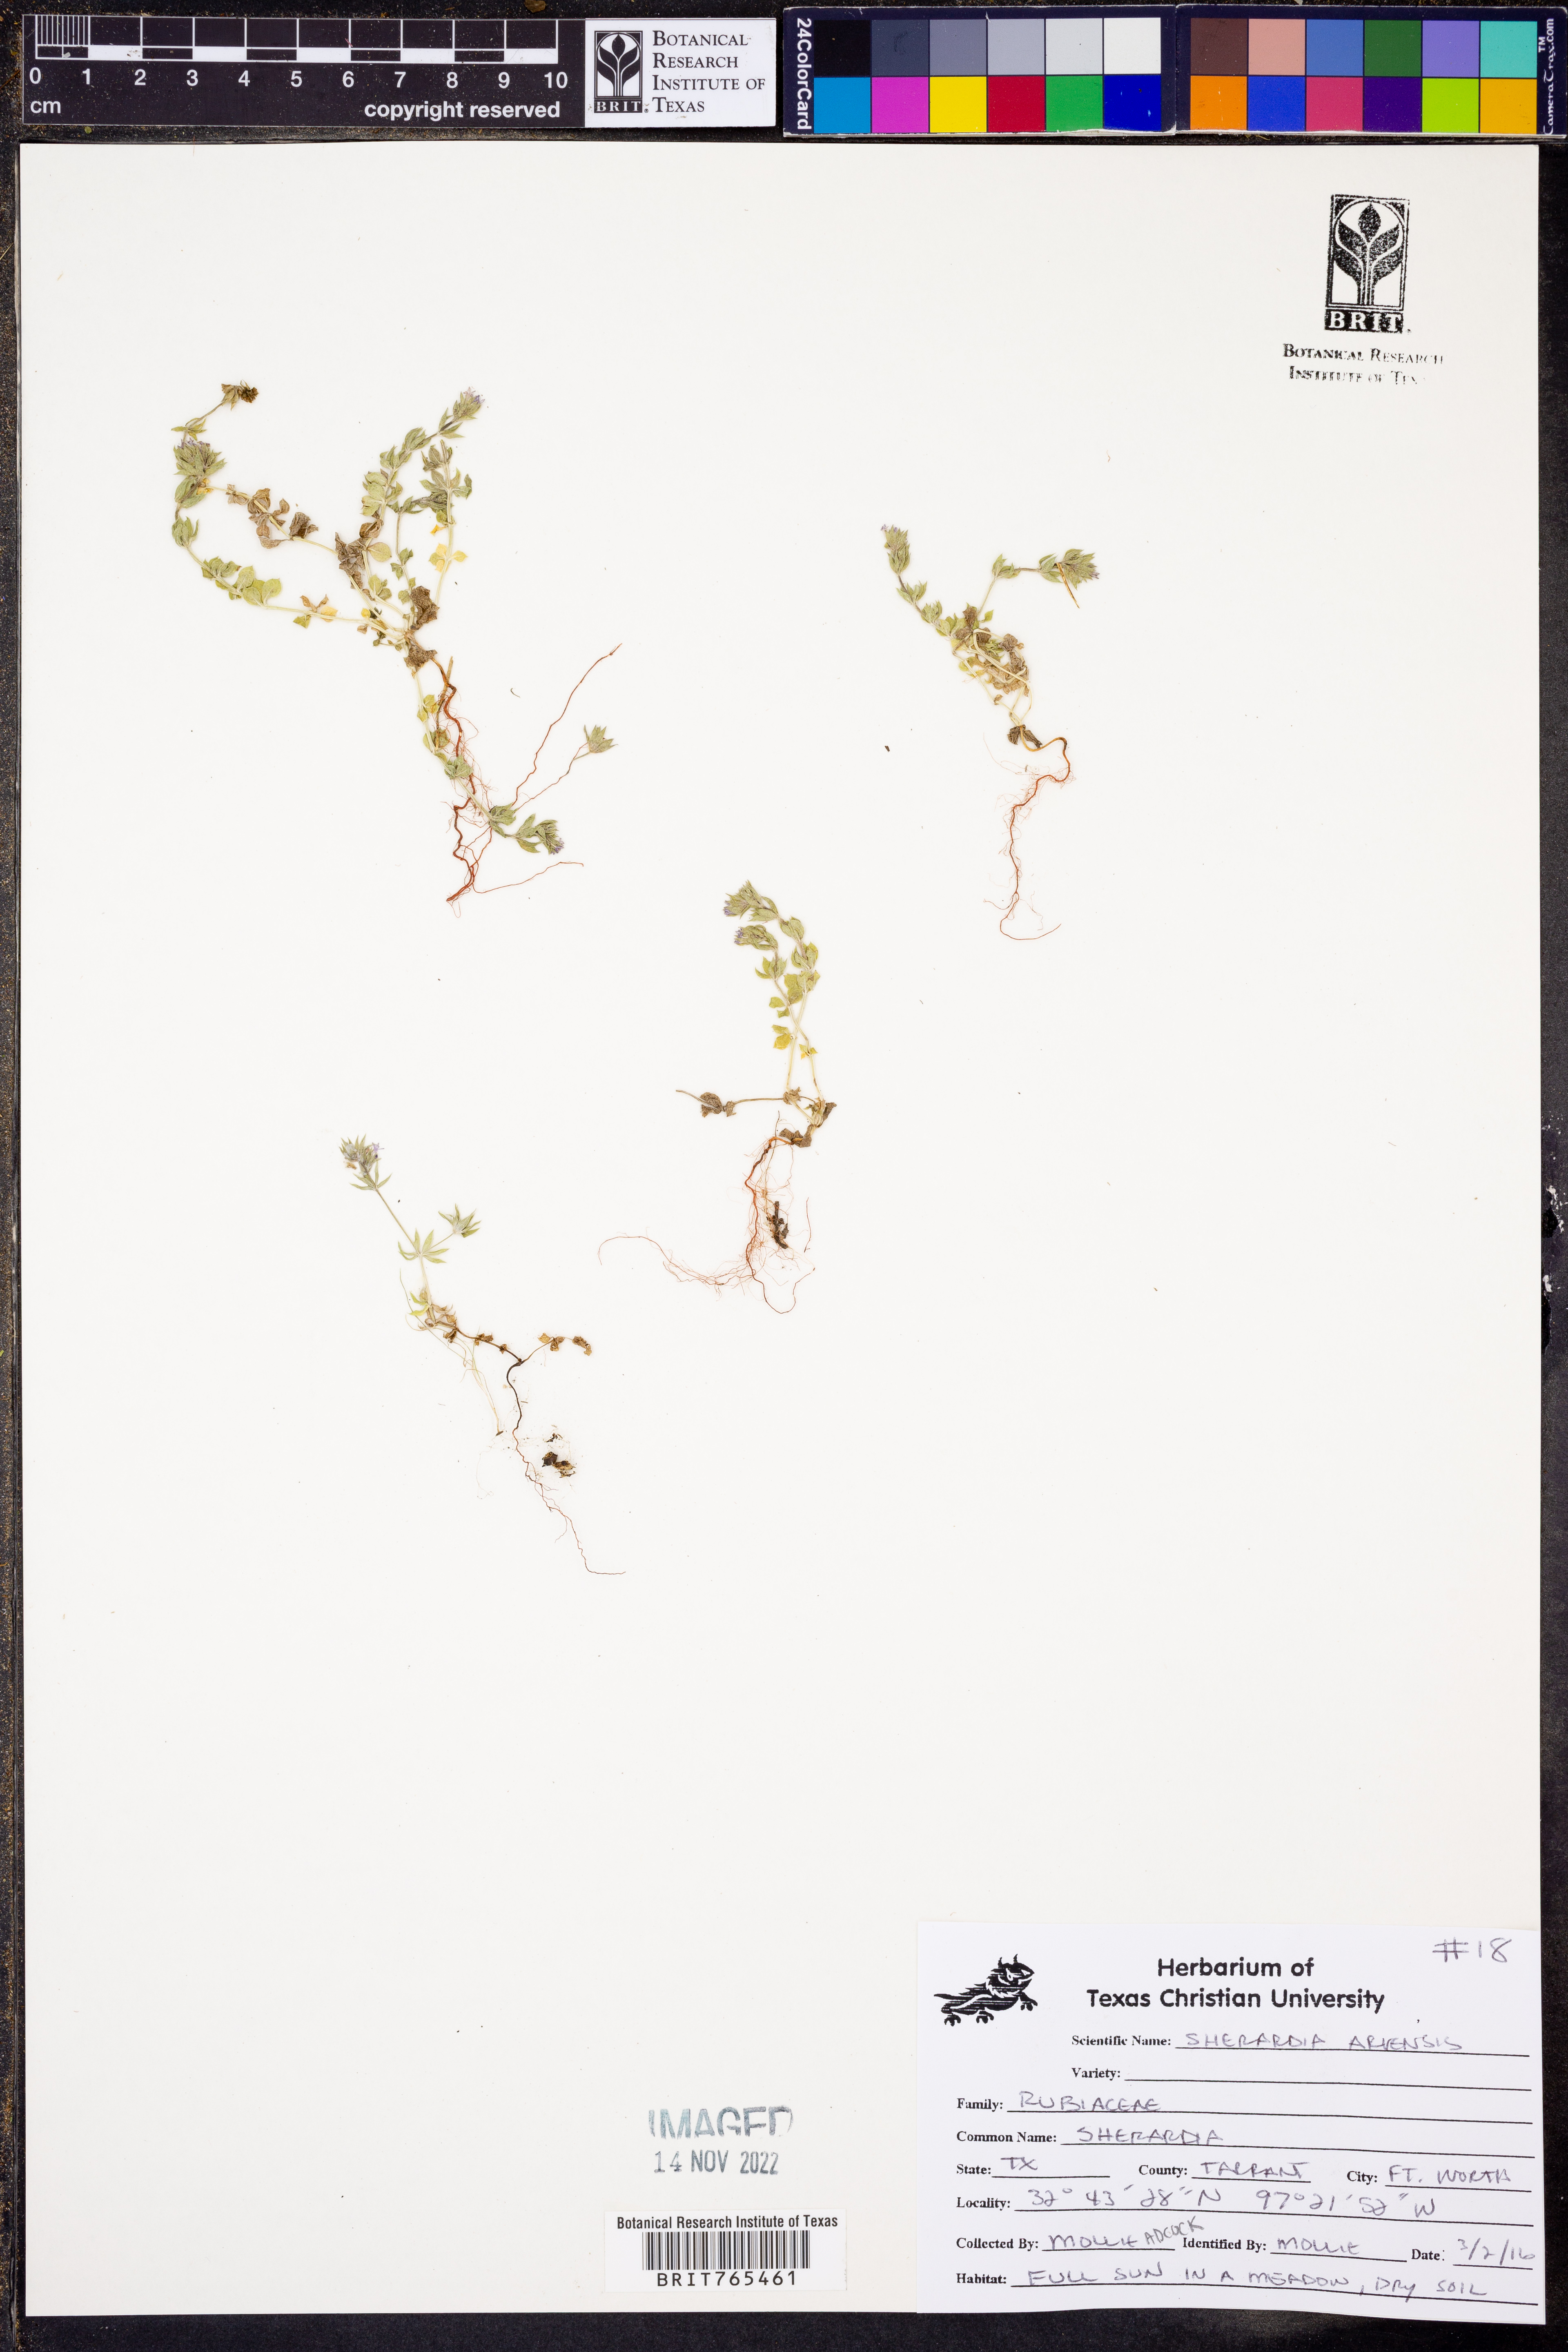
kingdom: Plantae
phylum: Tracheophyta
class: Magnoliopsida
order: Gentianales
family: Rubiaceae
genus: Sherardia
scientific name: Sherardia arvensis
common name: Field madder
